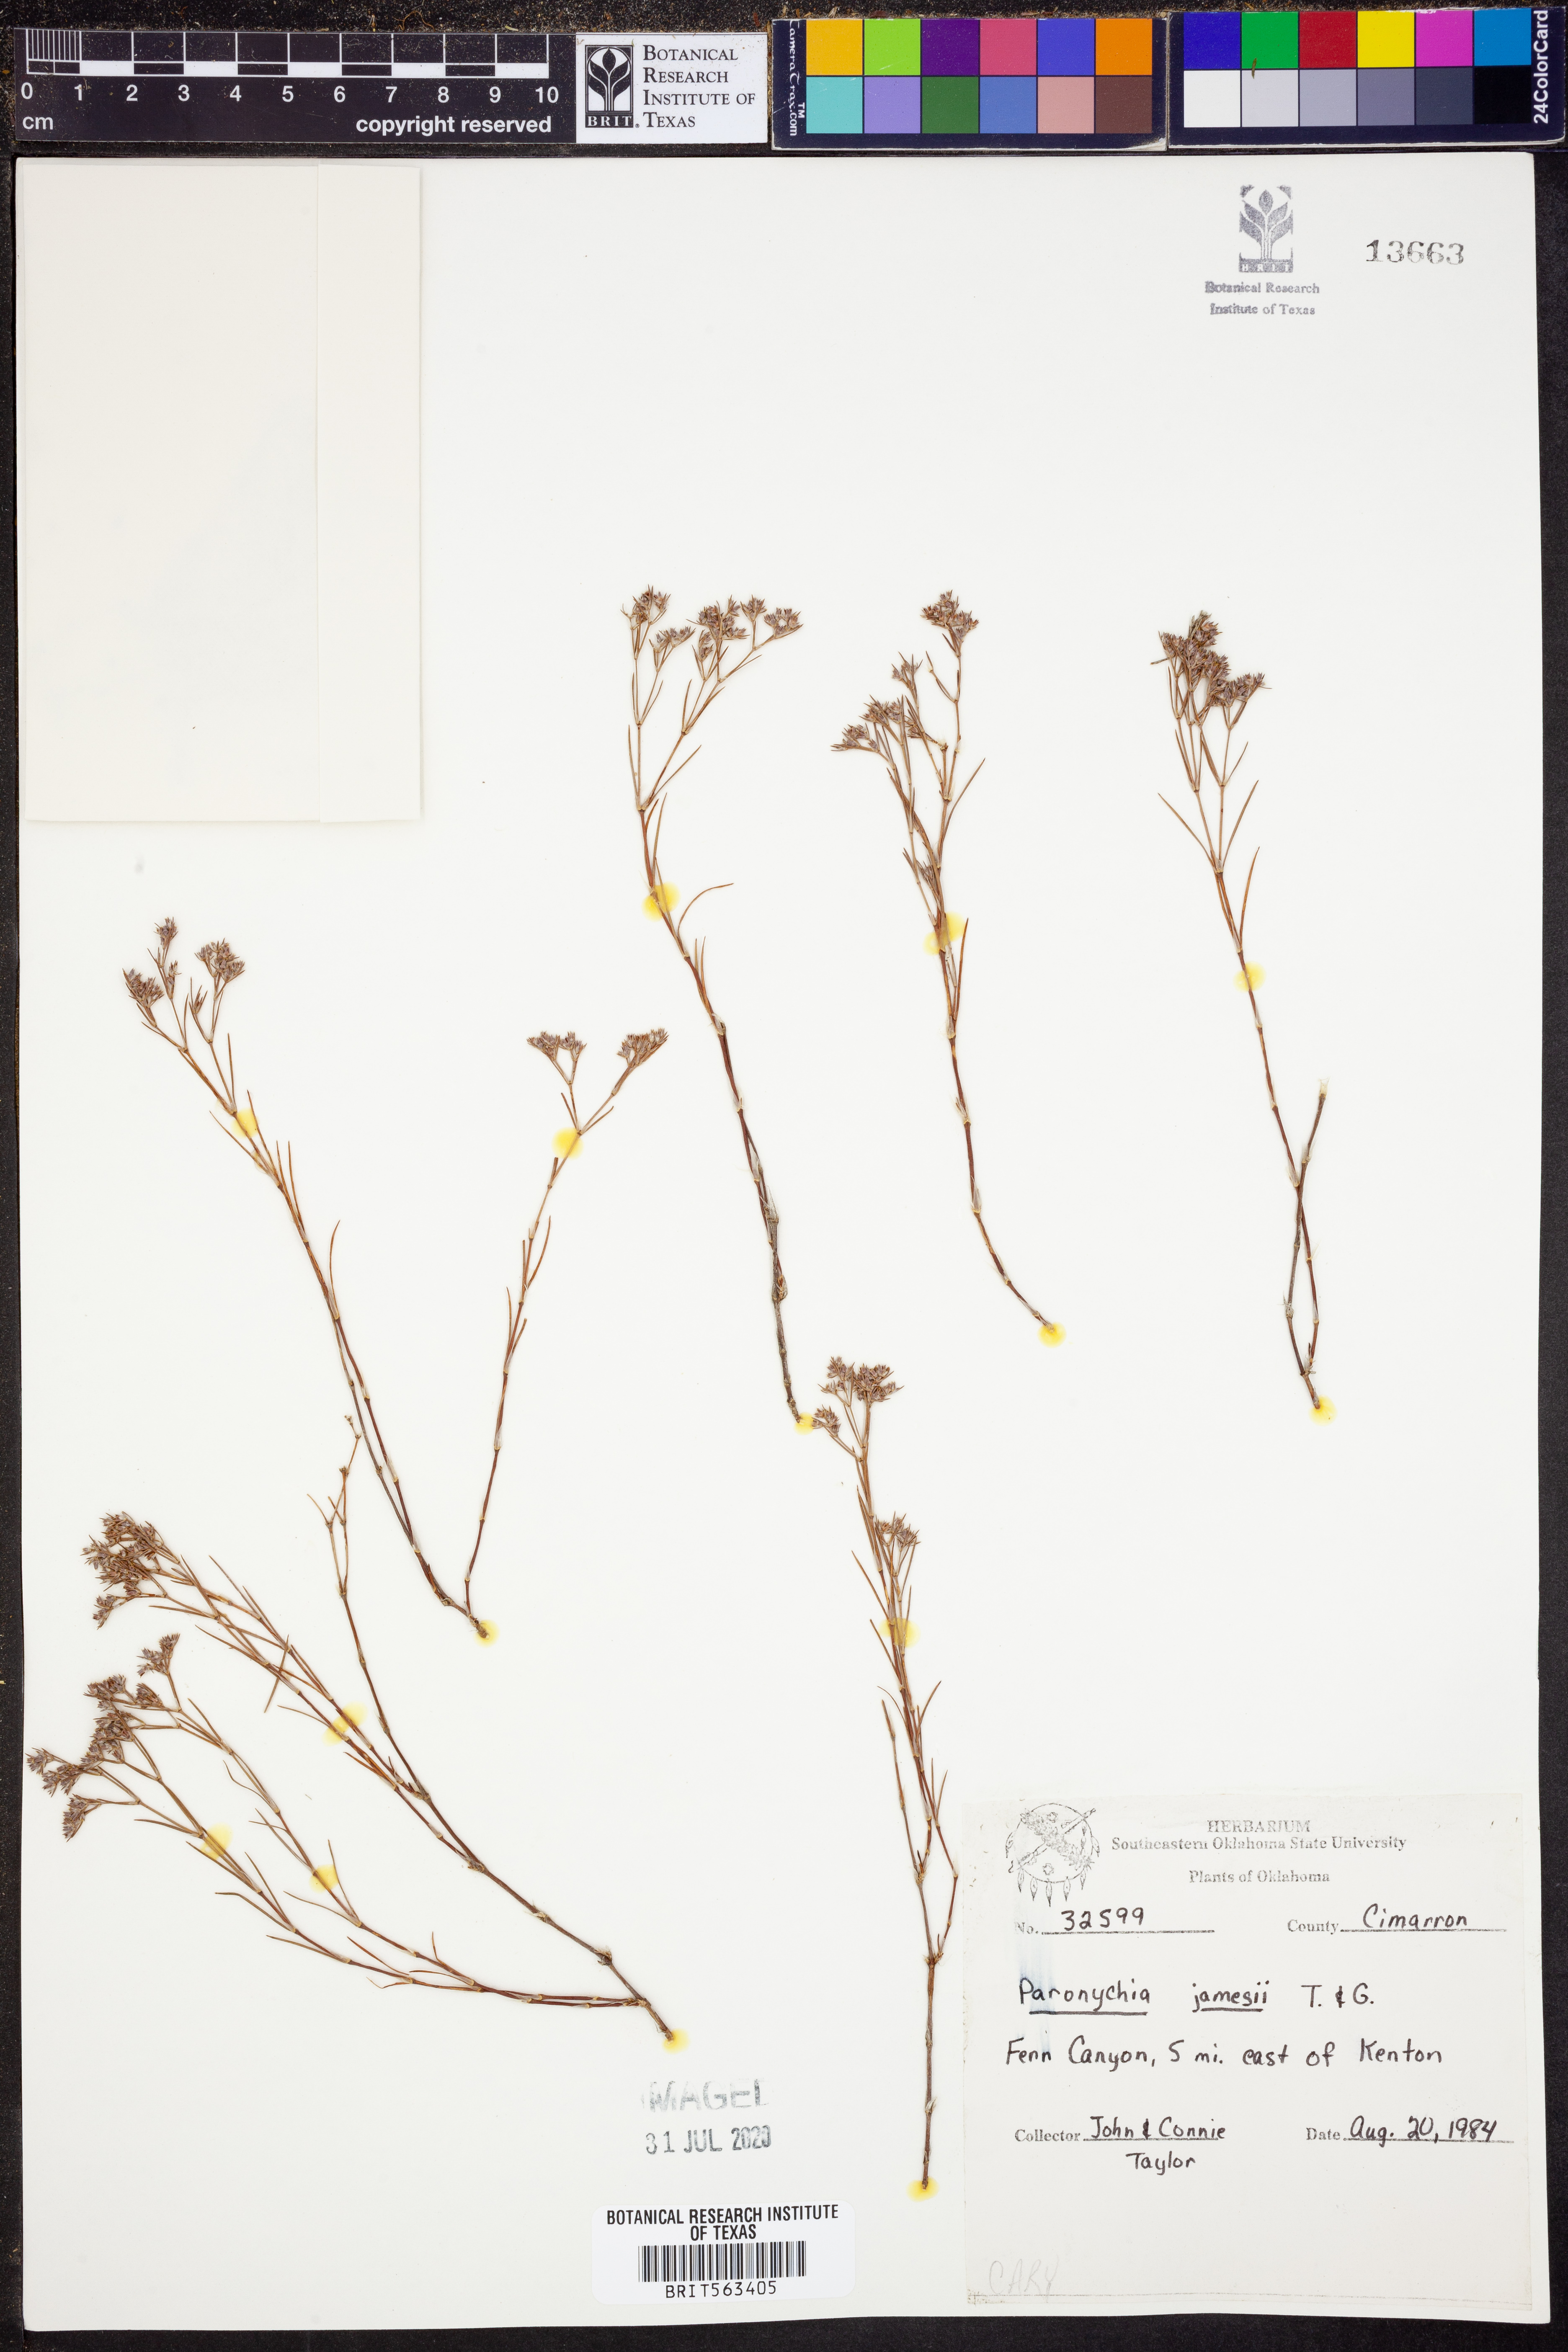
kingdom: Plantae
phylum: Tracheophyta
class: Magnoliopsida
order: Caryophyllales
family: Caryophyllaceae
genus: Paronychia
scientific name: Paronychia jamesii
